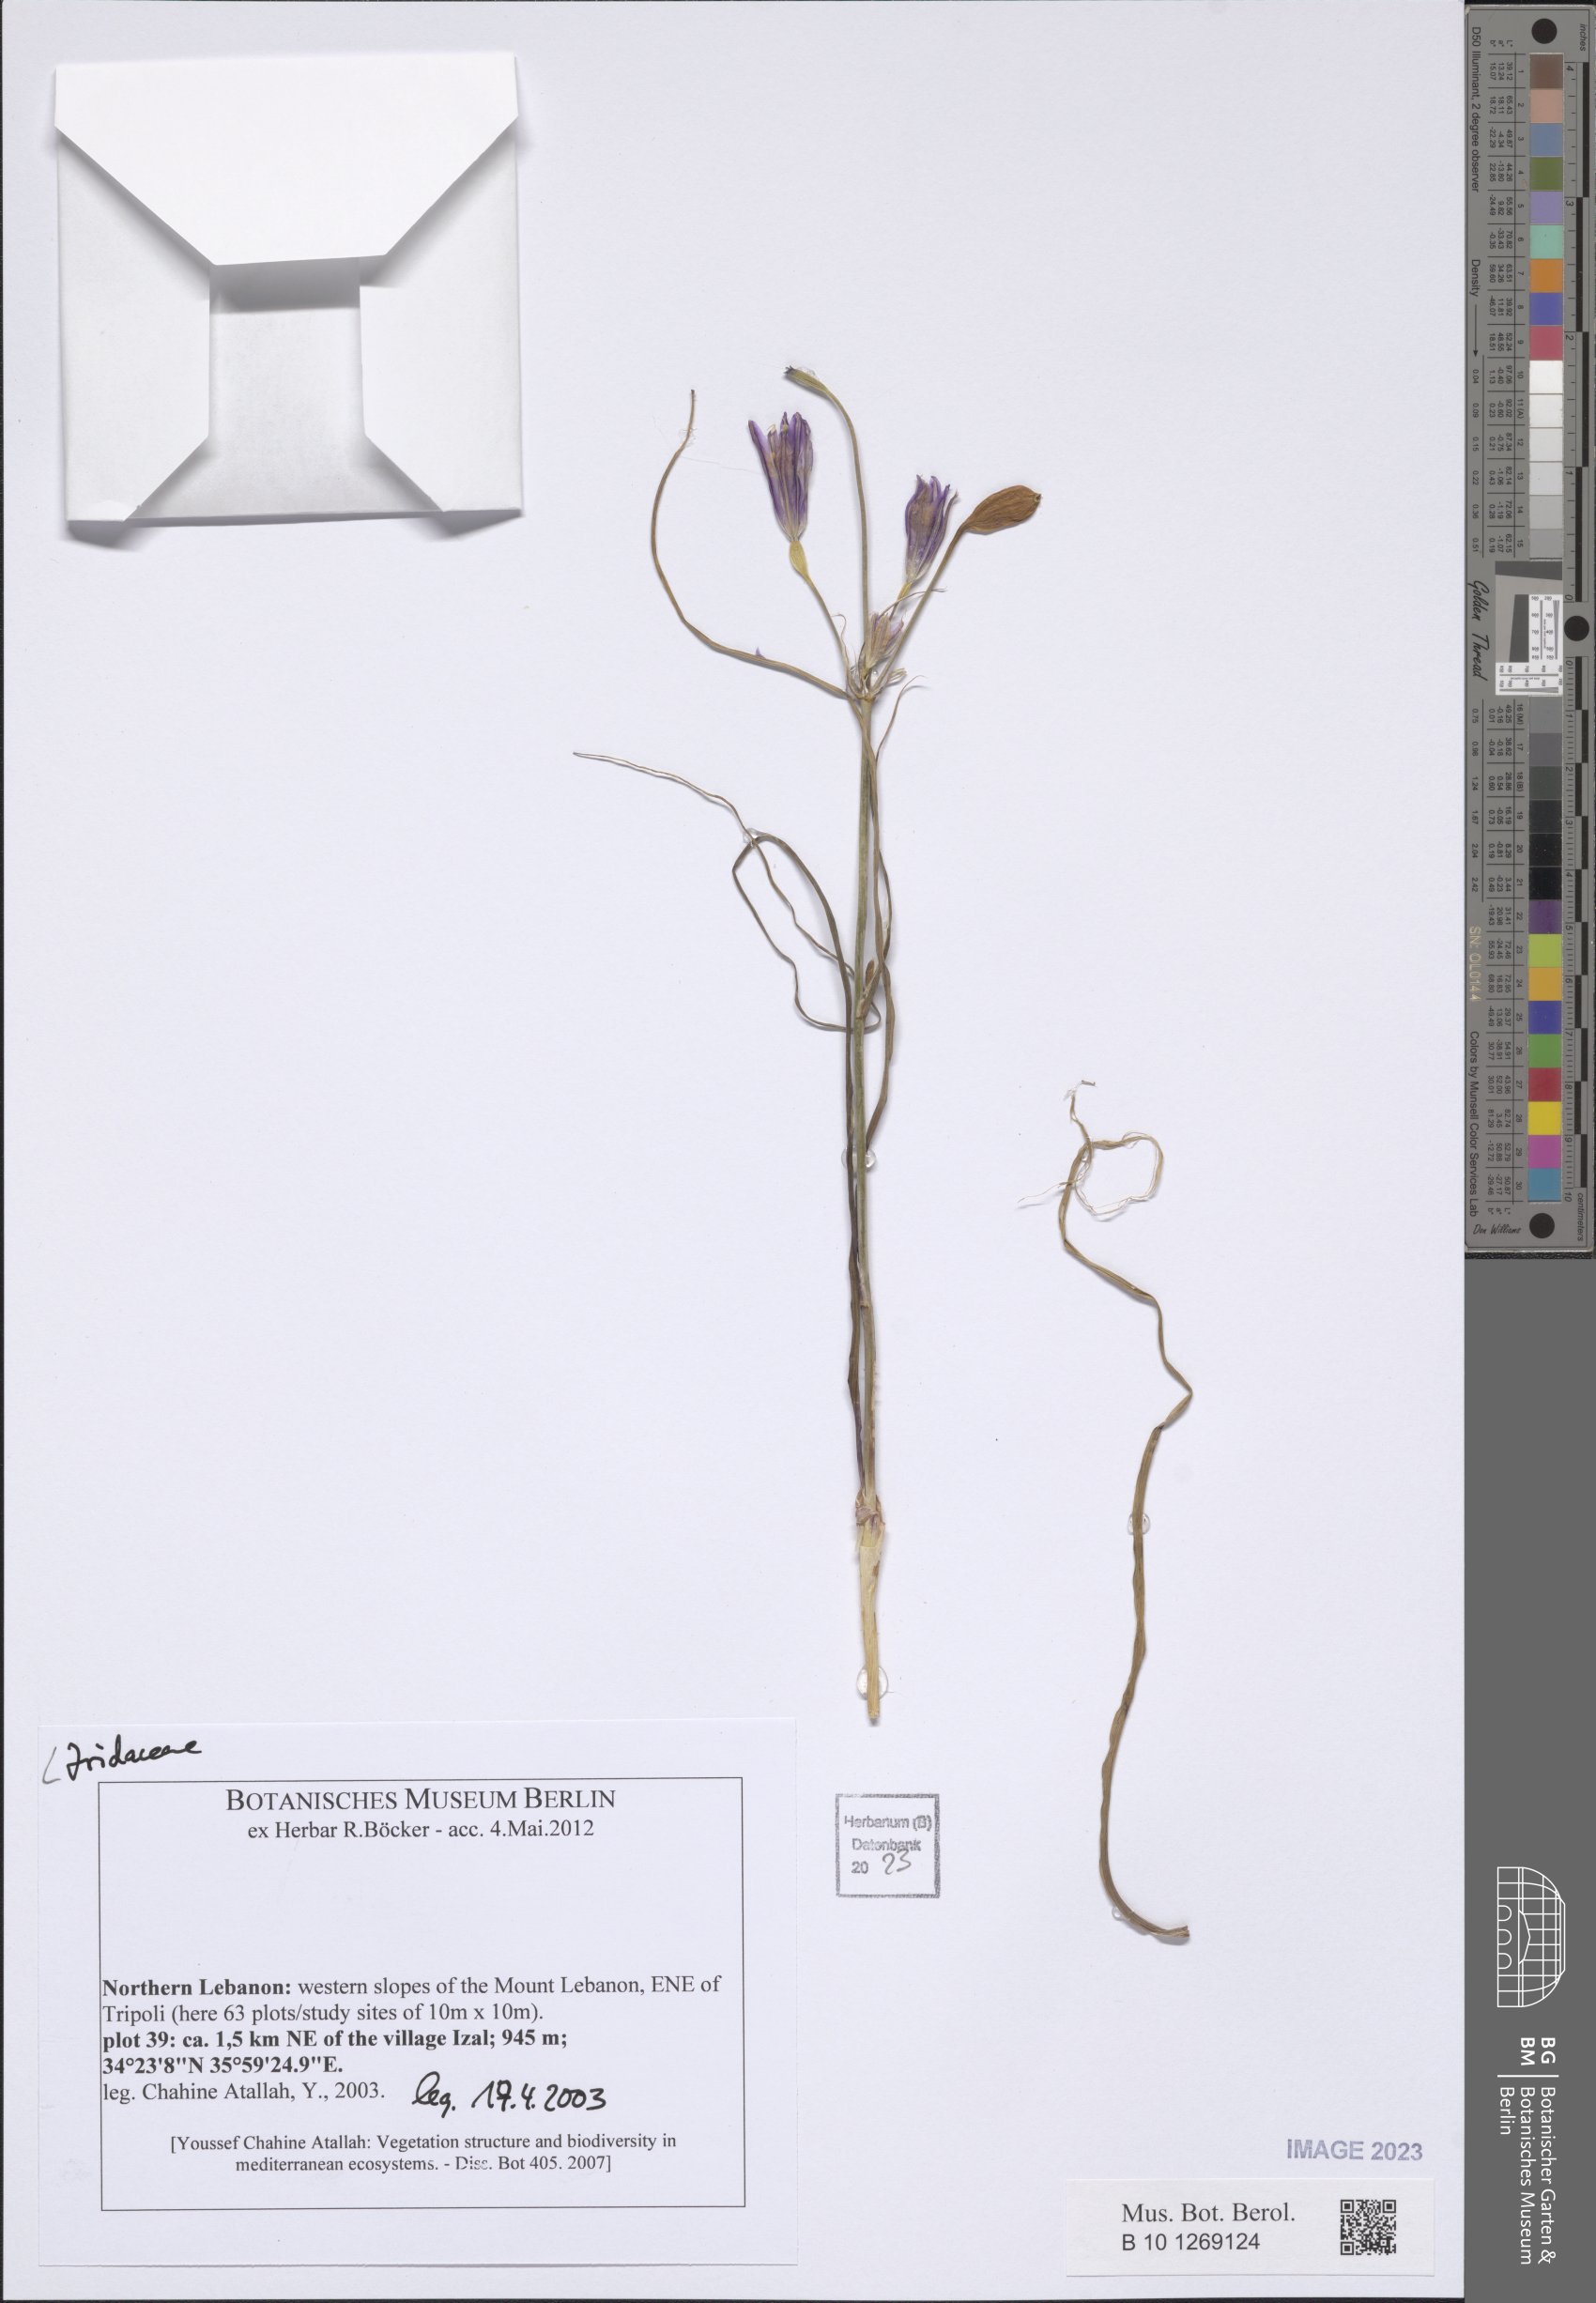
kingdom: Plantae
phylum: Tracheophyta
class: Liliopsida
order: Asparagales
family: Iridaceae
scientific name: Iridaceae
